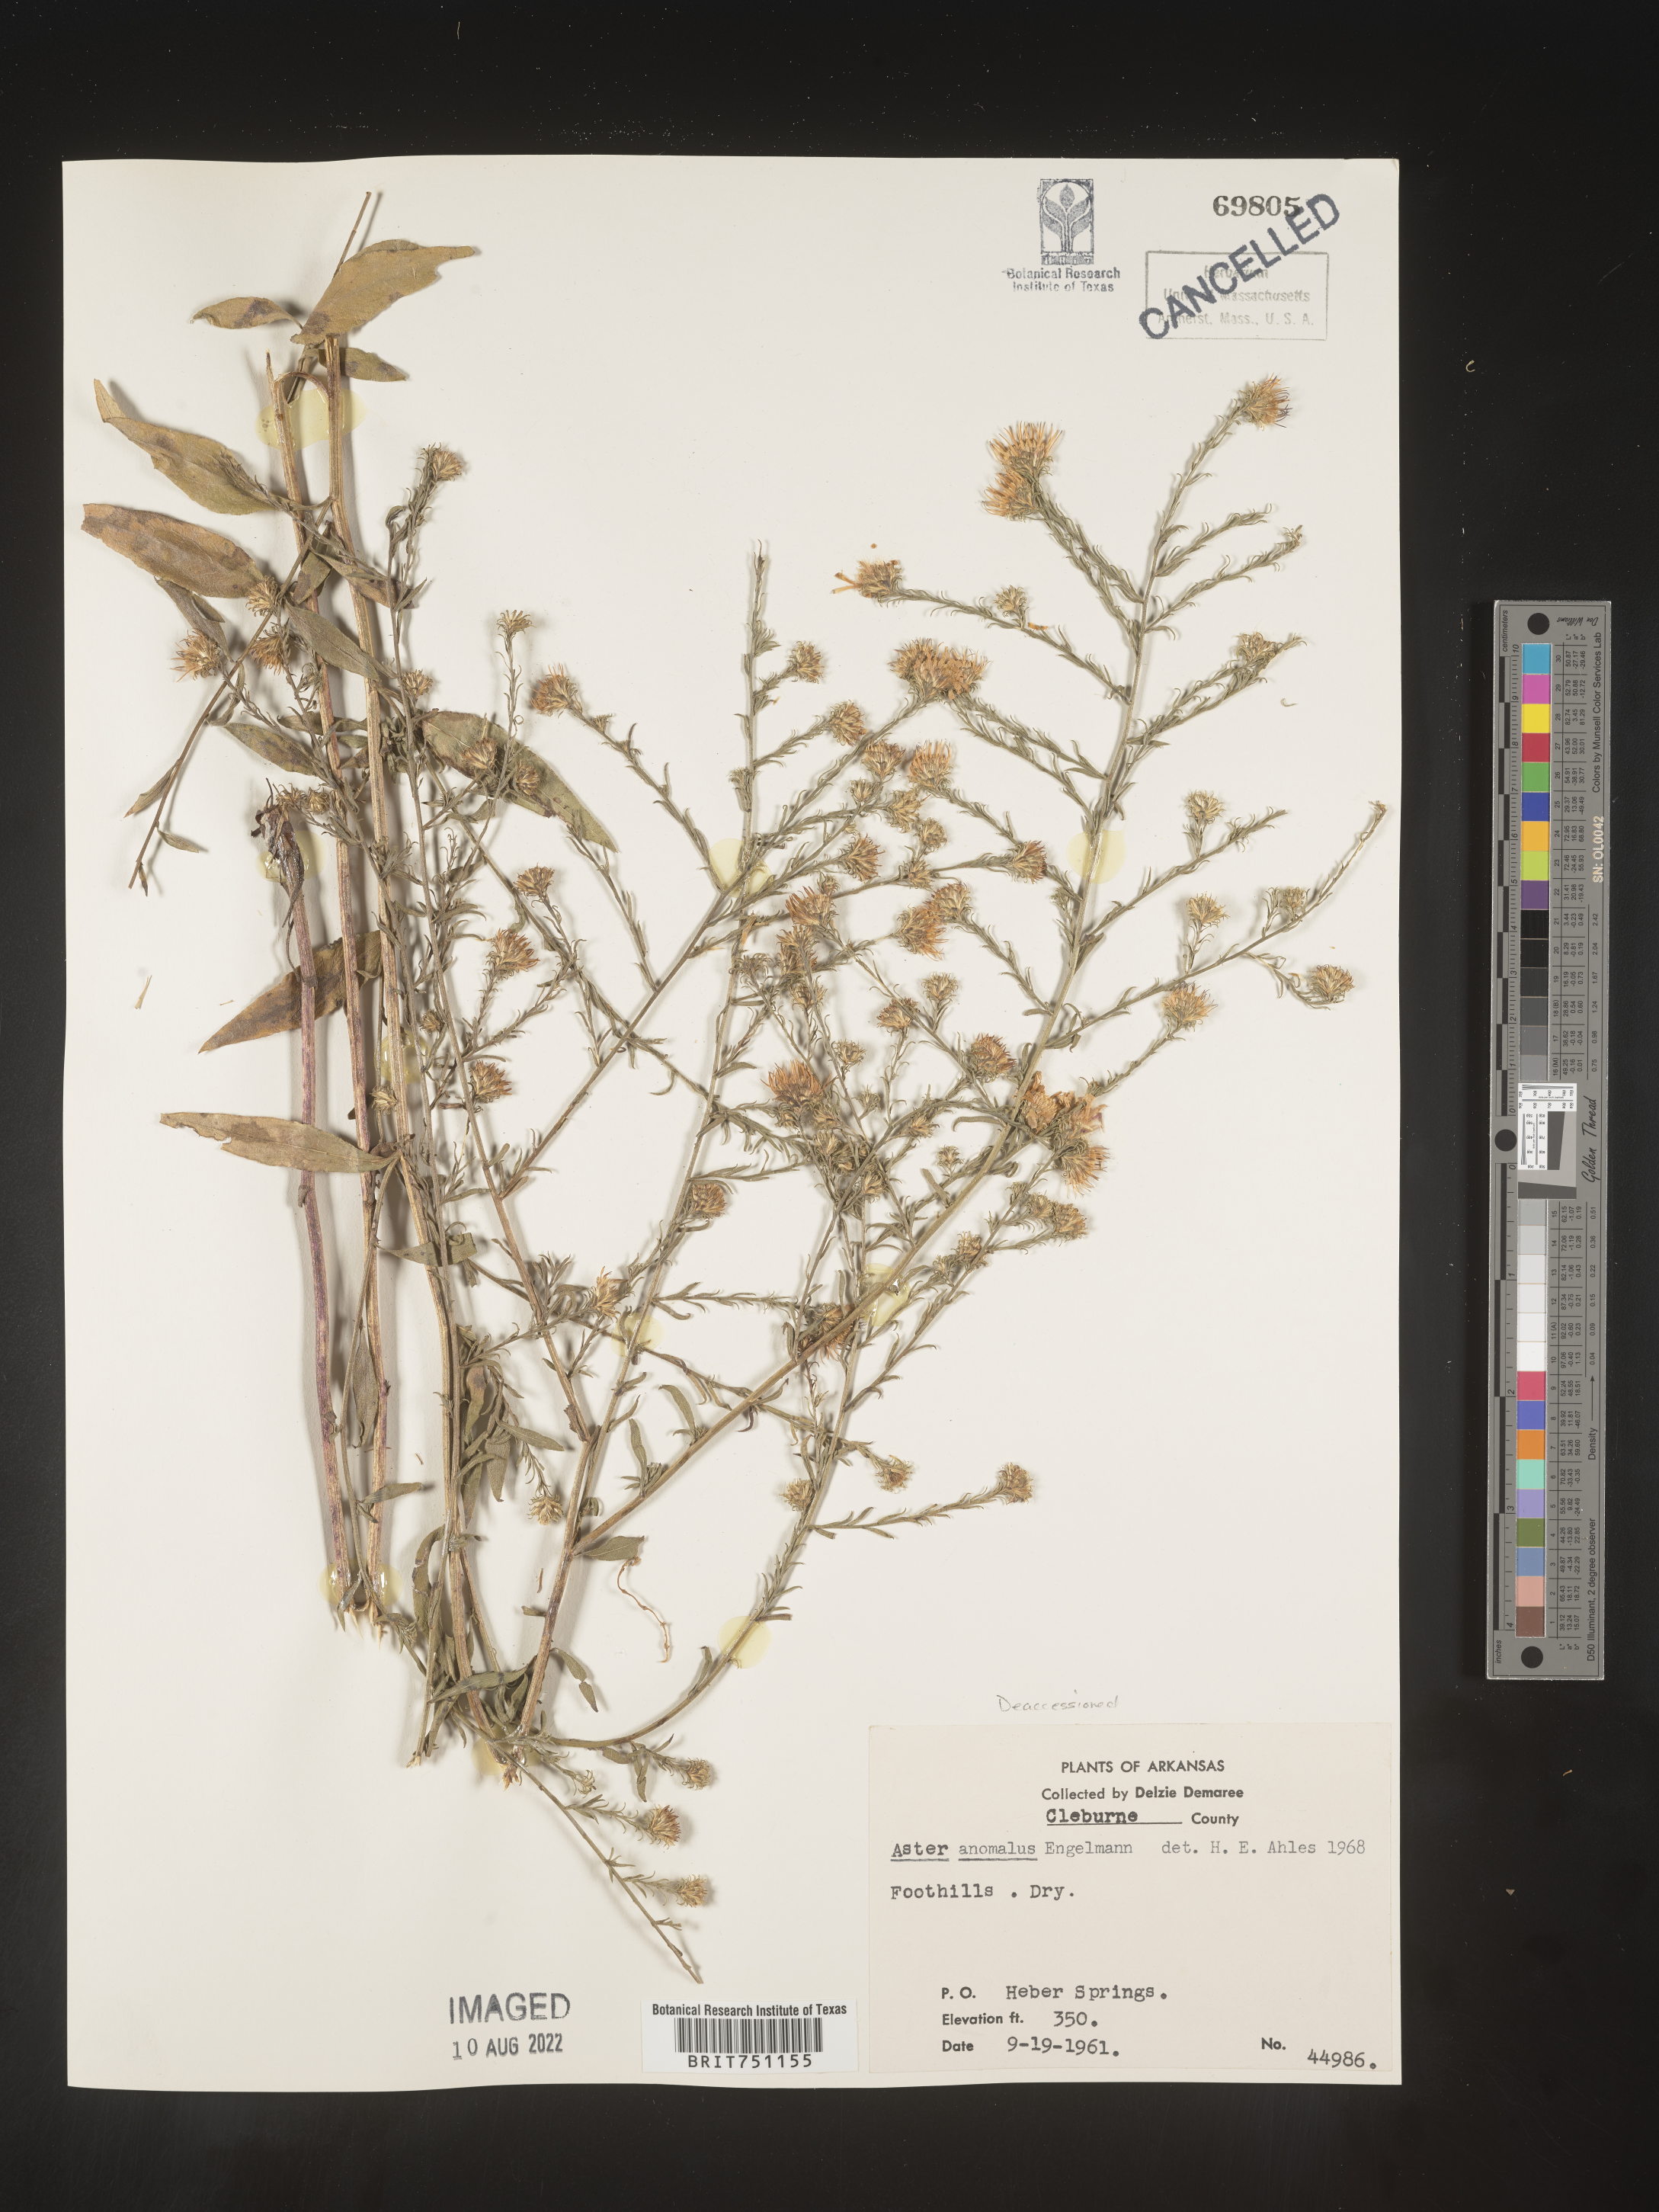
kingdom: Plantae
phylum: Tracheophyta
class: Magnoliopsida
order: Asterales
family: Asteraceae
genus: Symphyotrichum
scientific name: Symphyotrichum anomalum
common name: Many-ray aster
